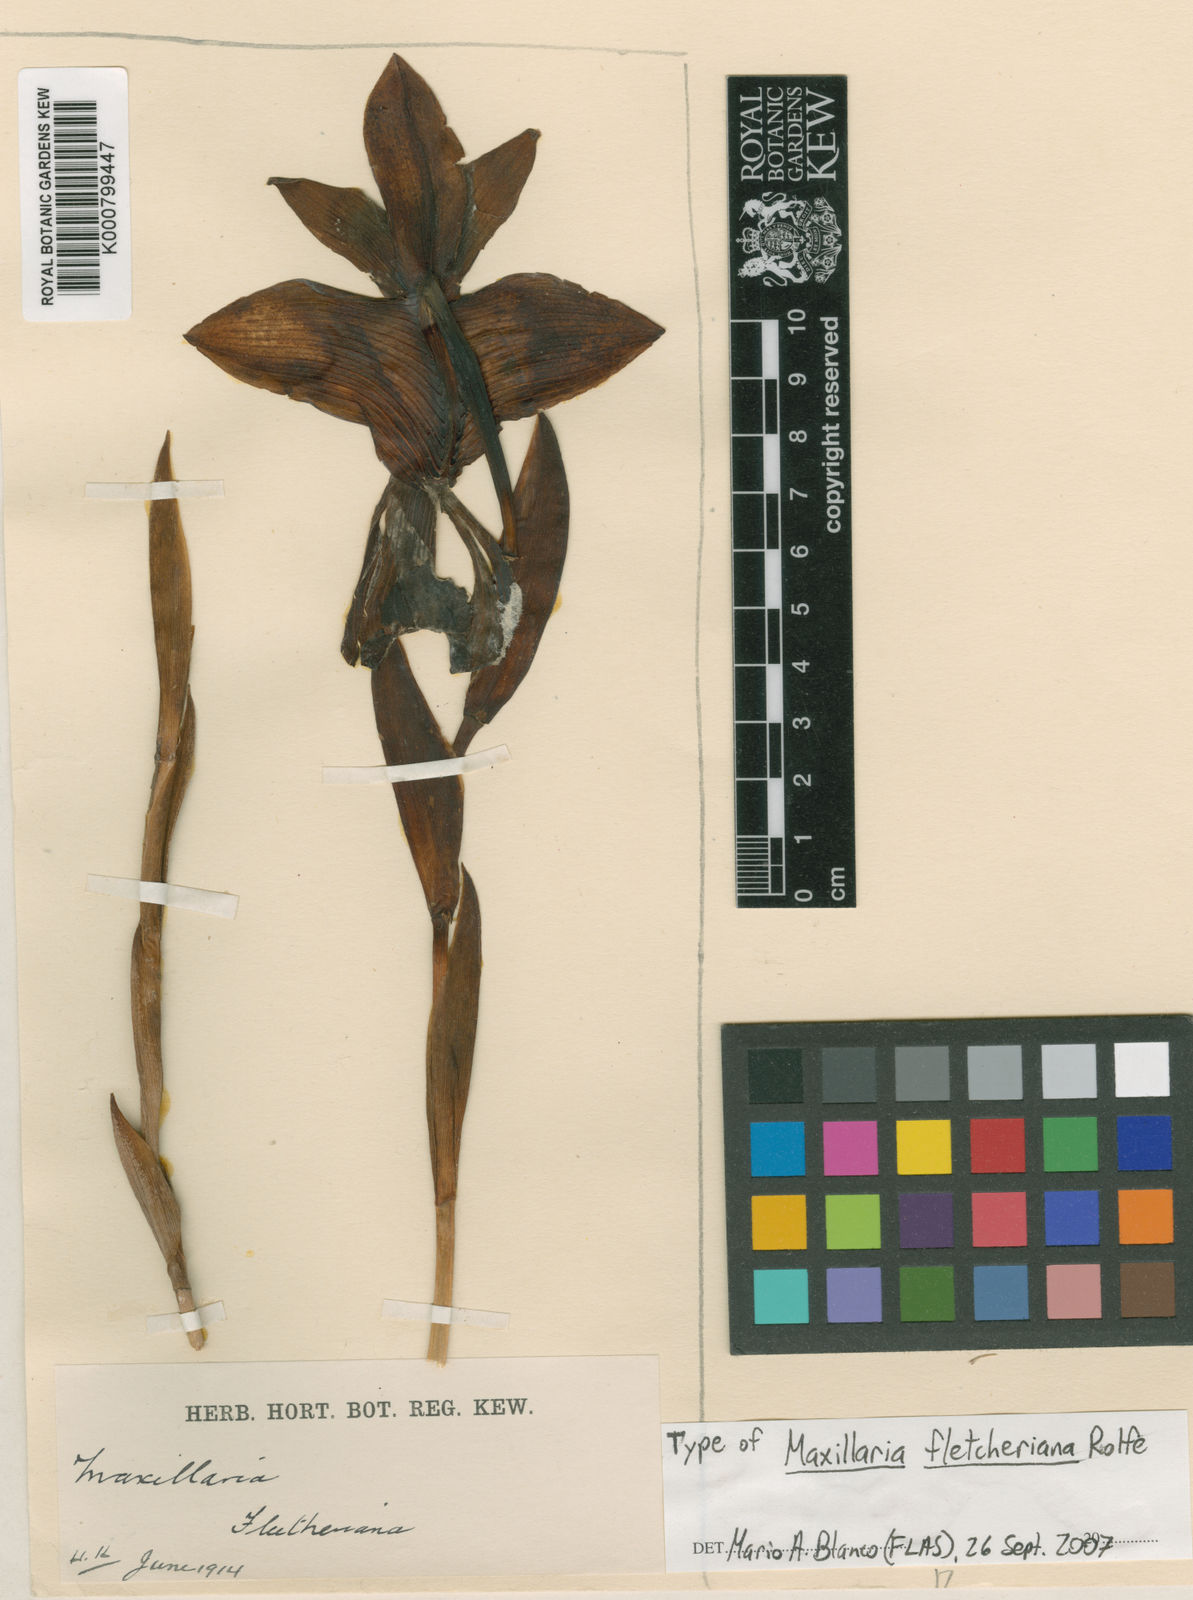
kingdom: Plantae
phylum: Tracheophyta
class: Liliopsida
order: Asparagales
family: Orchidaceae
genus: Maxillaria
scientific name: Maxillaria fletcheriana
